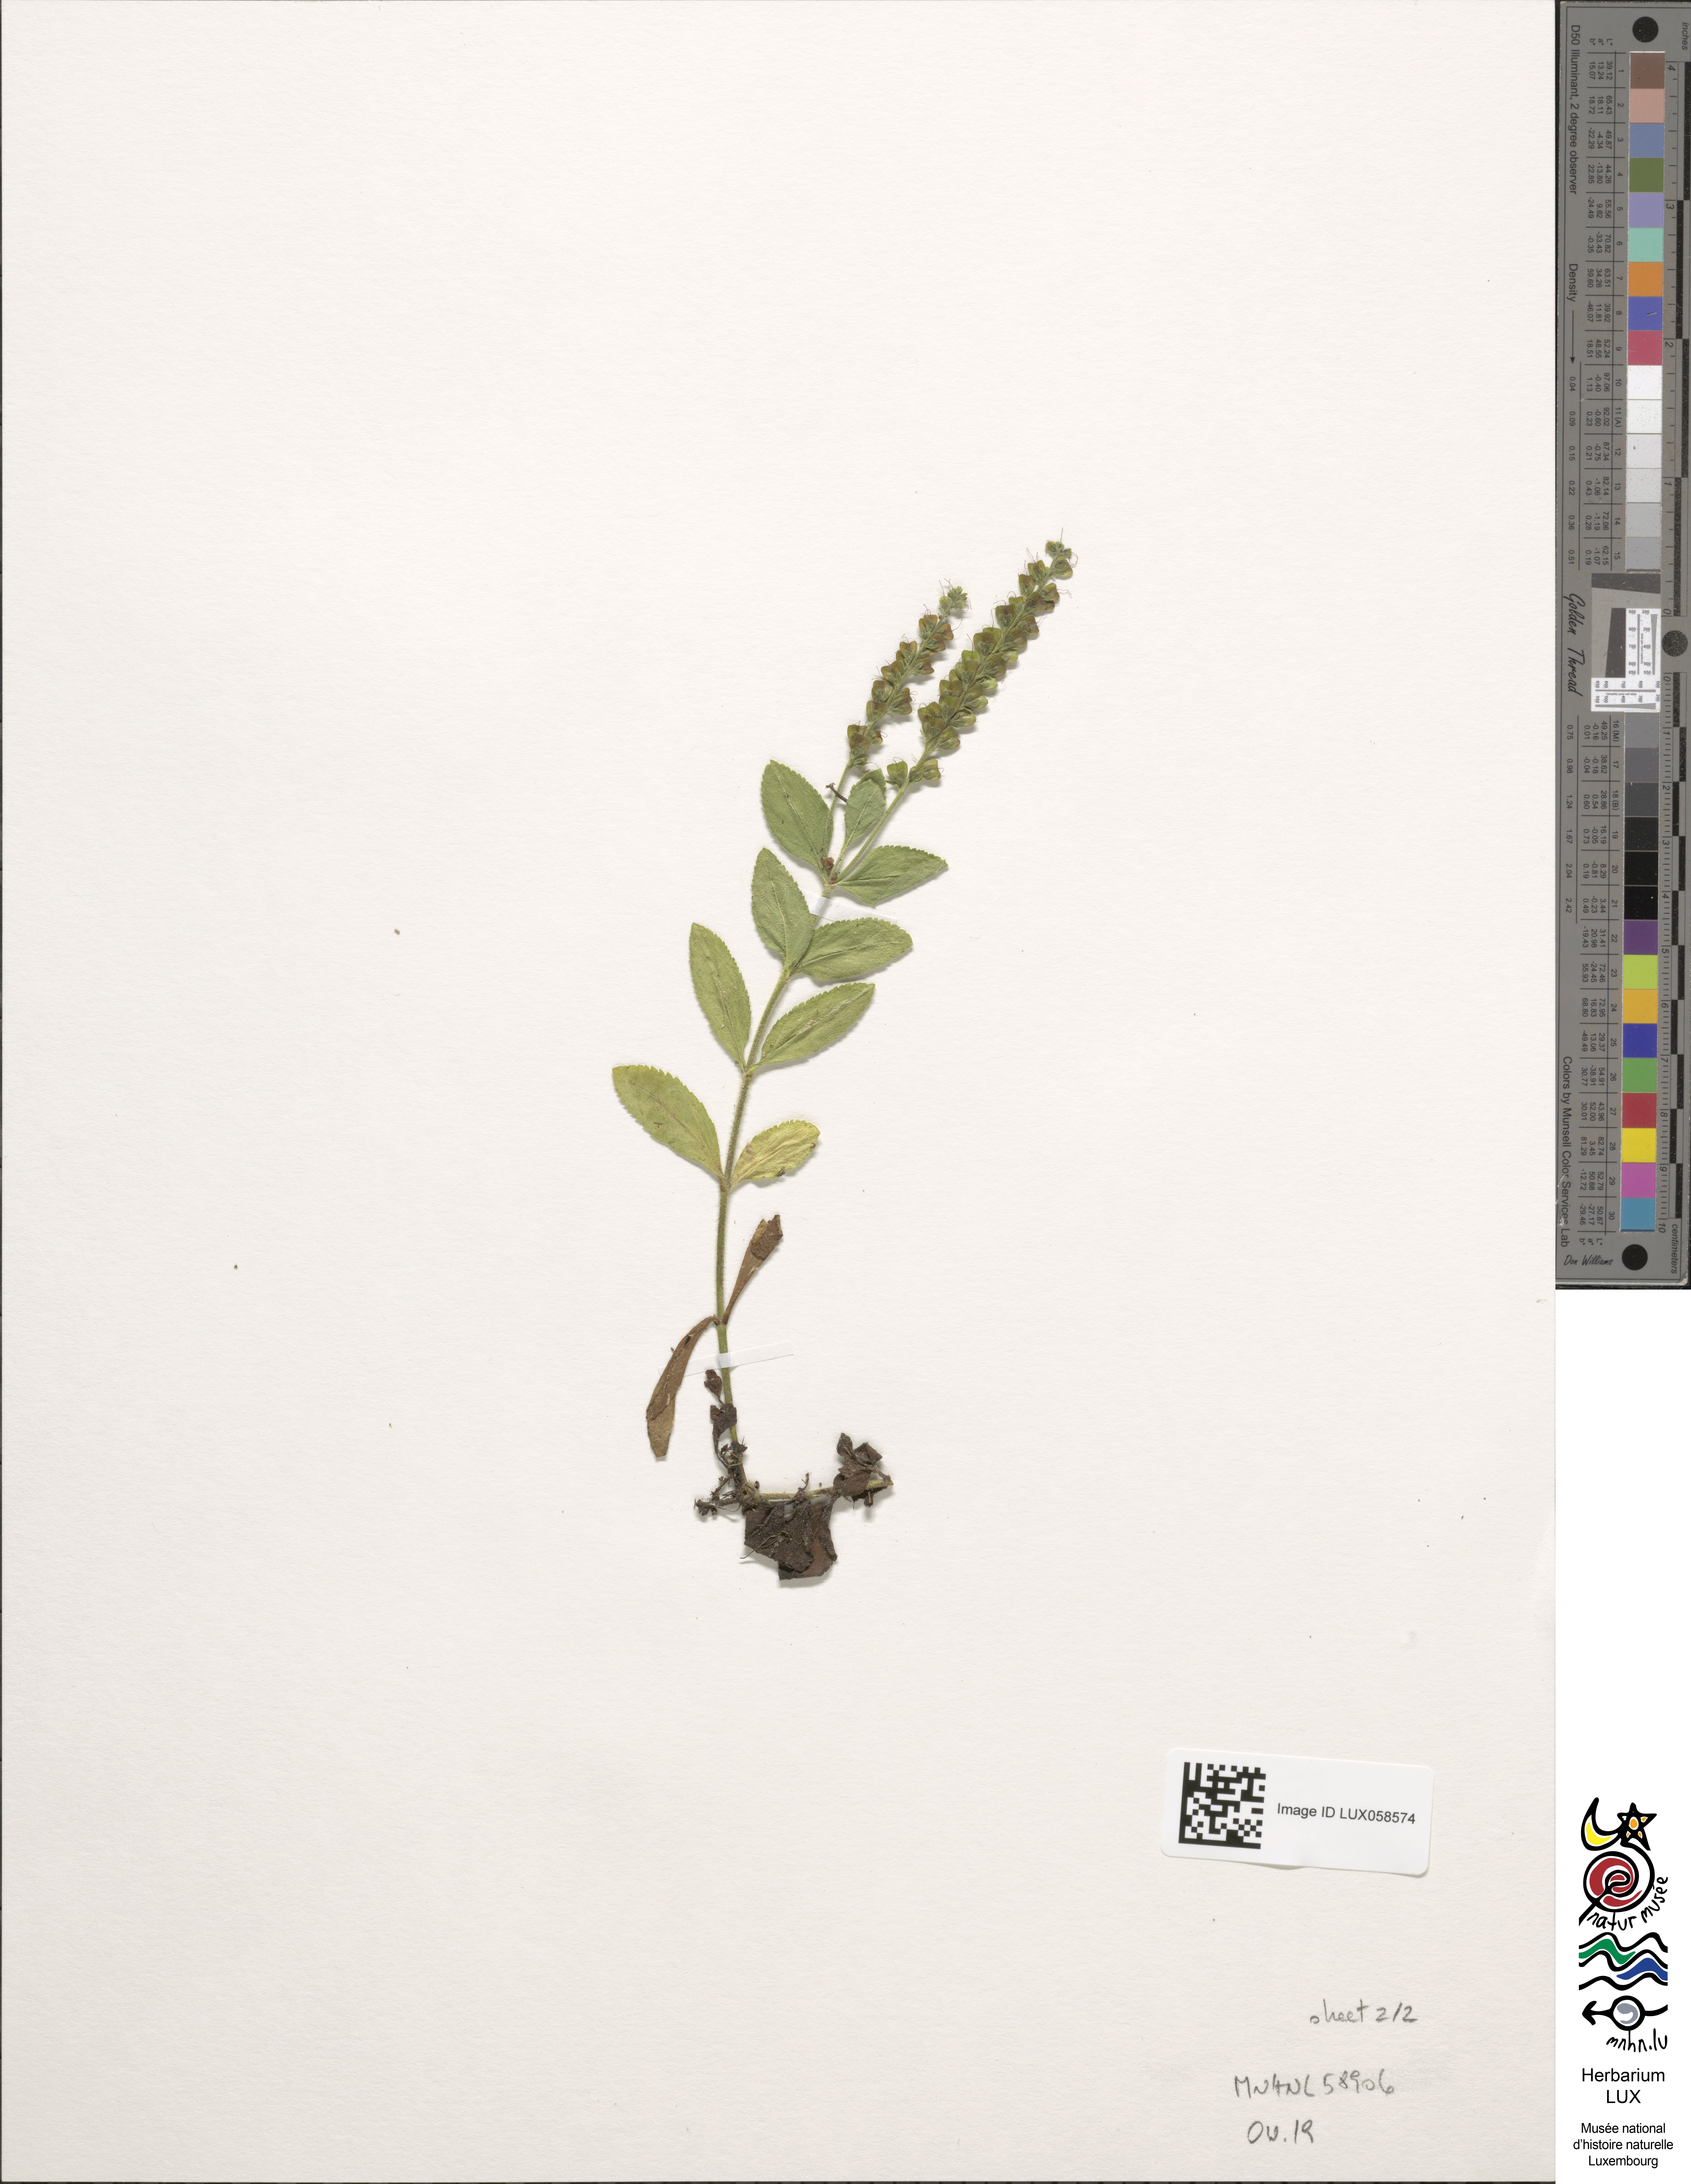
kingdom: Plantae
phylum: Tracheophyta
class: Magnoliopsida
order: Gentianales
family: Rubiaceae
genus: Galium
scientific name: Galium verum
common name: Lady's bedstraw
